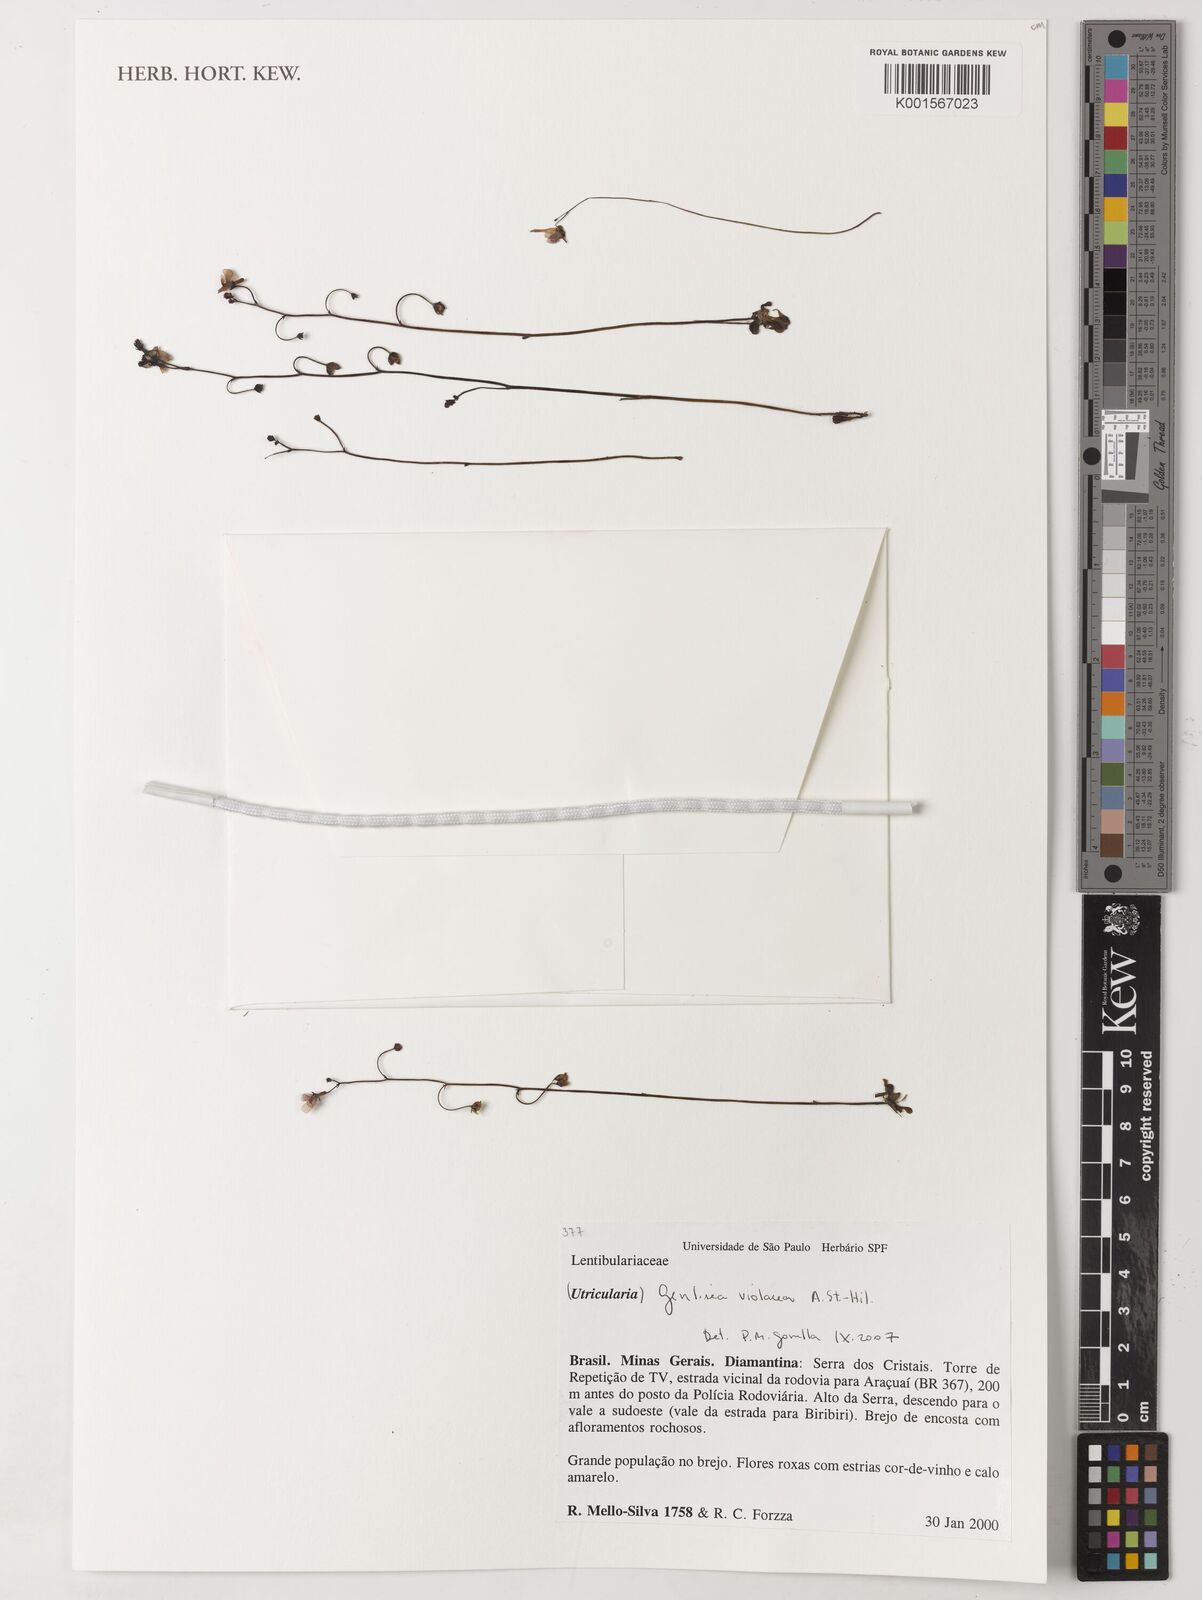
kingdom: Plantae
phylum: Tracheophyta
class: Magnoliopsida
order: Lamiales
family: Lentibulariaceae
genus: Genlisea
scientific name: Genlisea violacea
